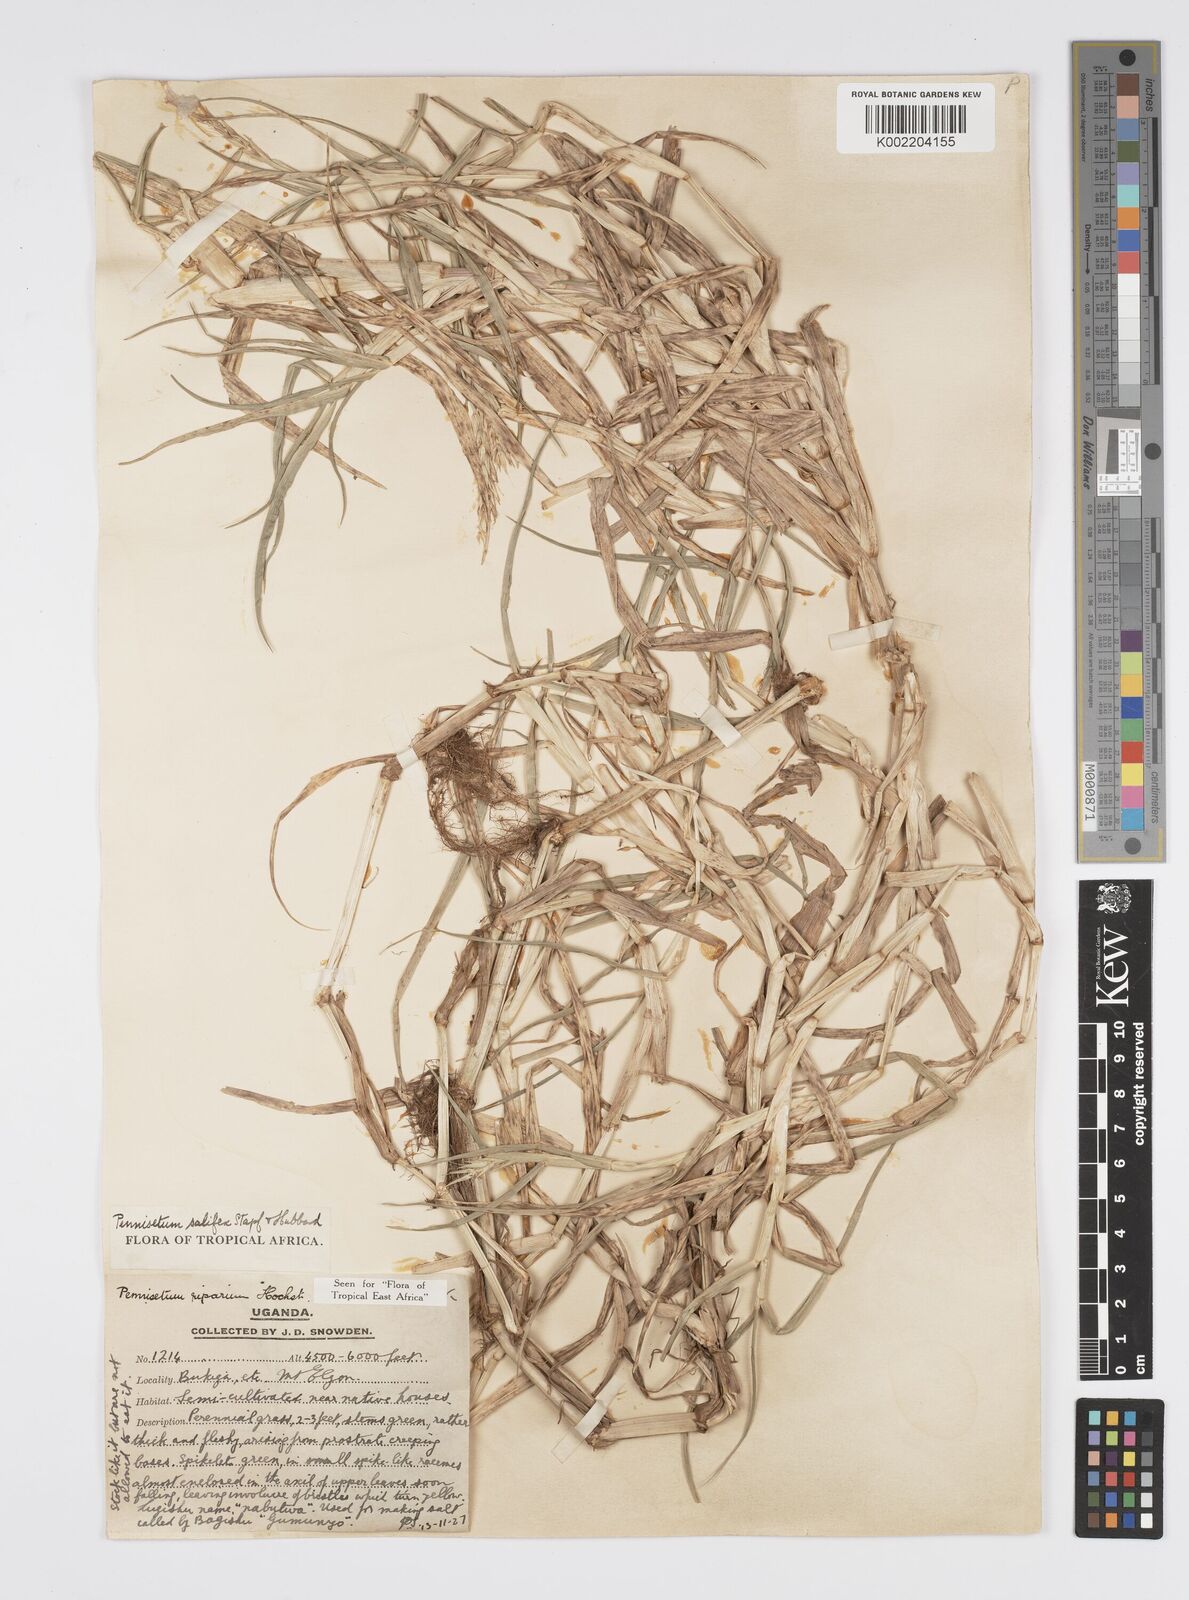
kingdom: Plantae
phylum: Tracheophyta
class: Liliopsida
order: Poales
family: Poaceae
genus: Cenchrus
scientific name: Cenchrus riparius
